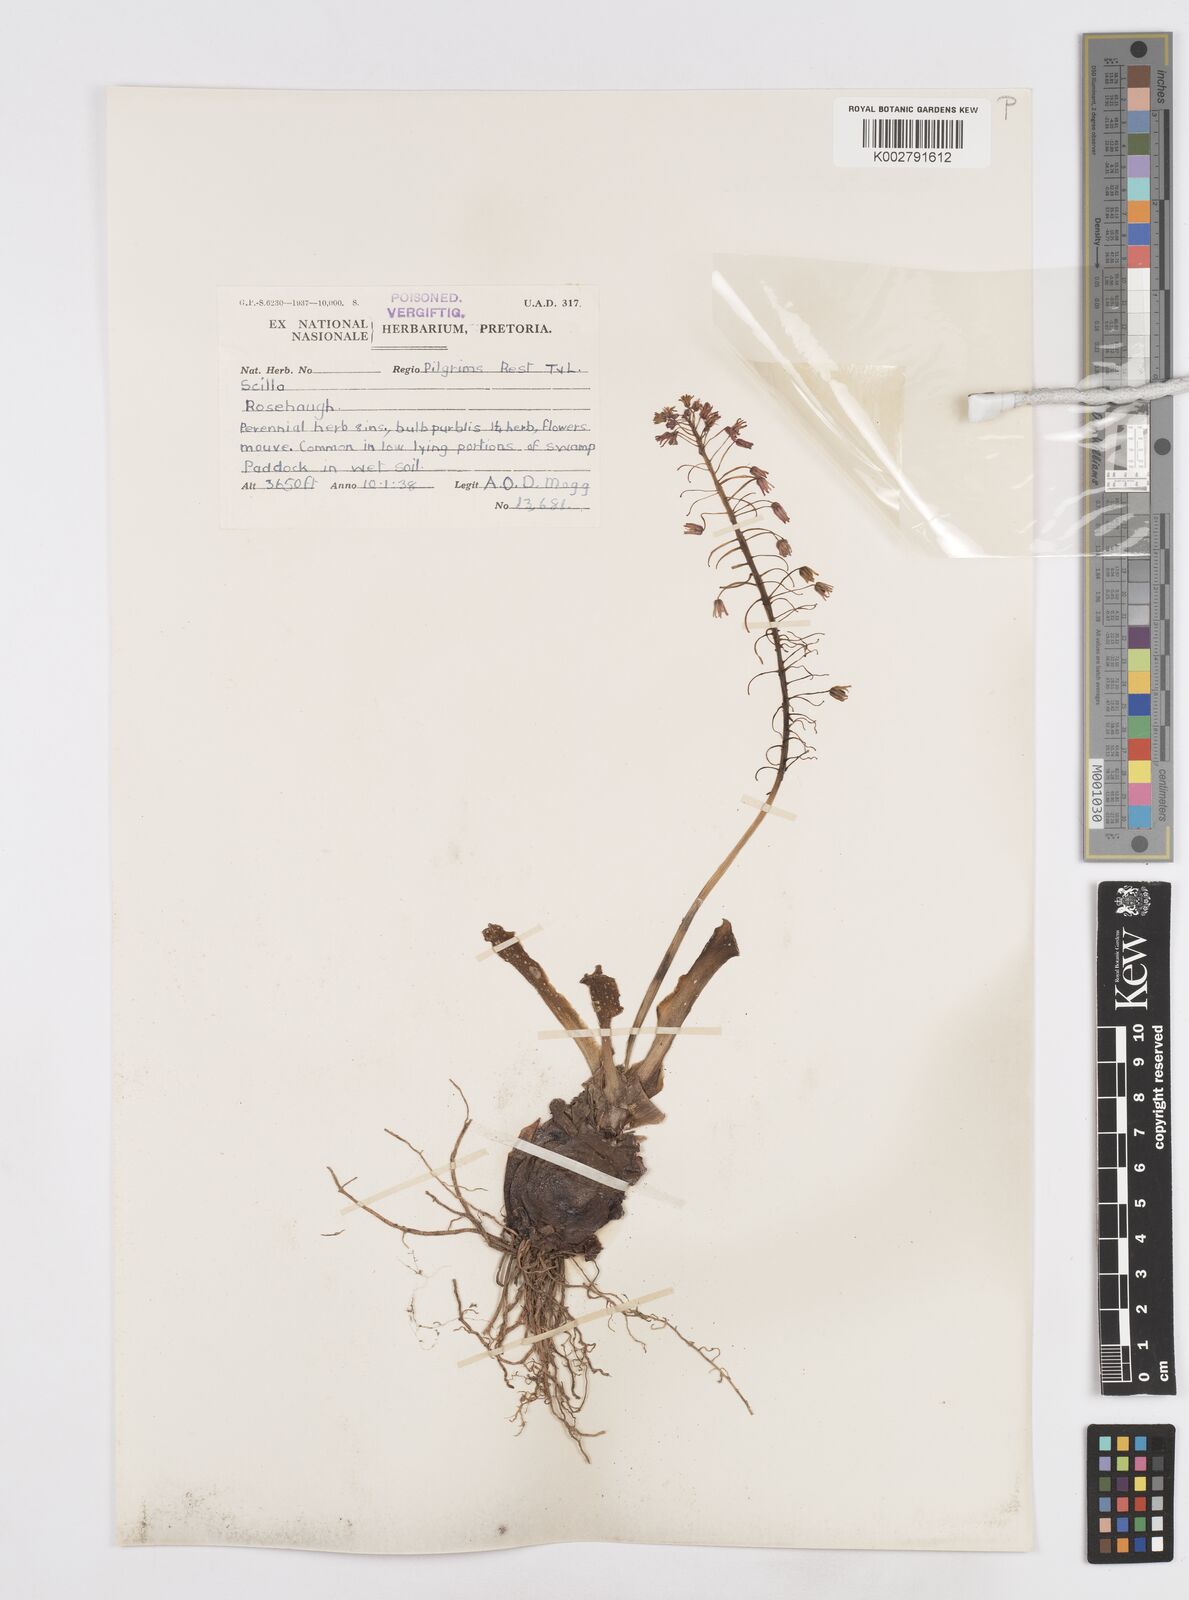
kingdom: Plantae
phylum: Tracheophyta
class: Liliopsida
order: Asparagales
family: Asparagaceae
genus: Scilla
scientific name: Scilla
